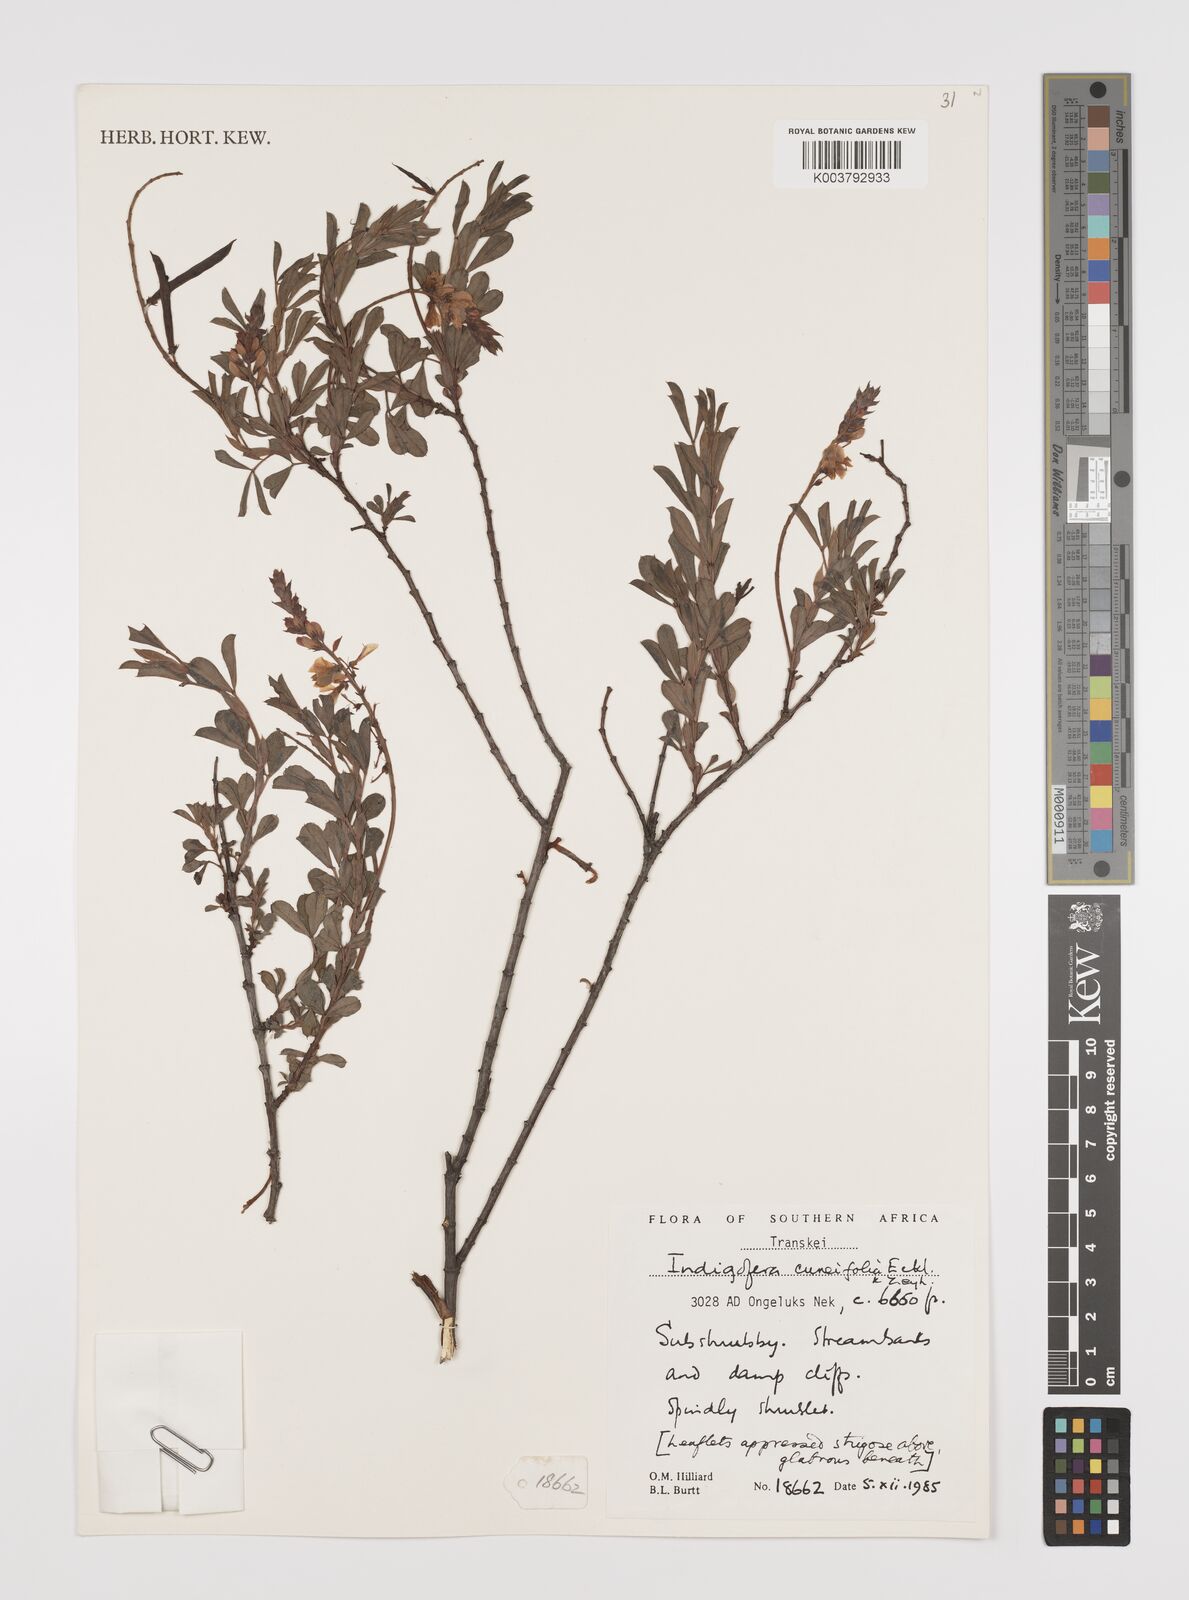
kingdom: Plantae
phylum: Tracheophyta
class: Magnoliopsida
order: Fabales
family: Fabaceae
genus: Indigofera
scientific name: Indigofera cuneifolia
